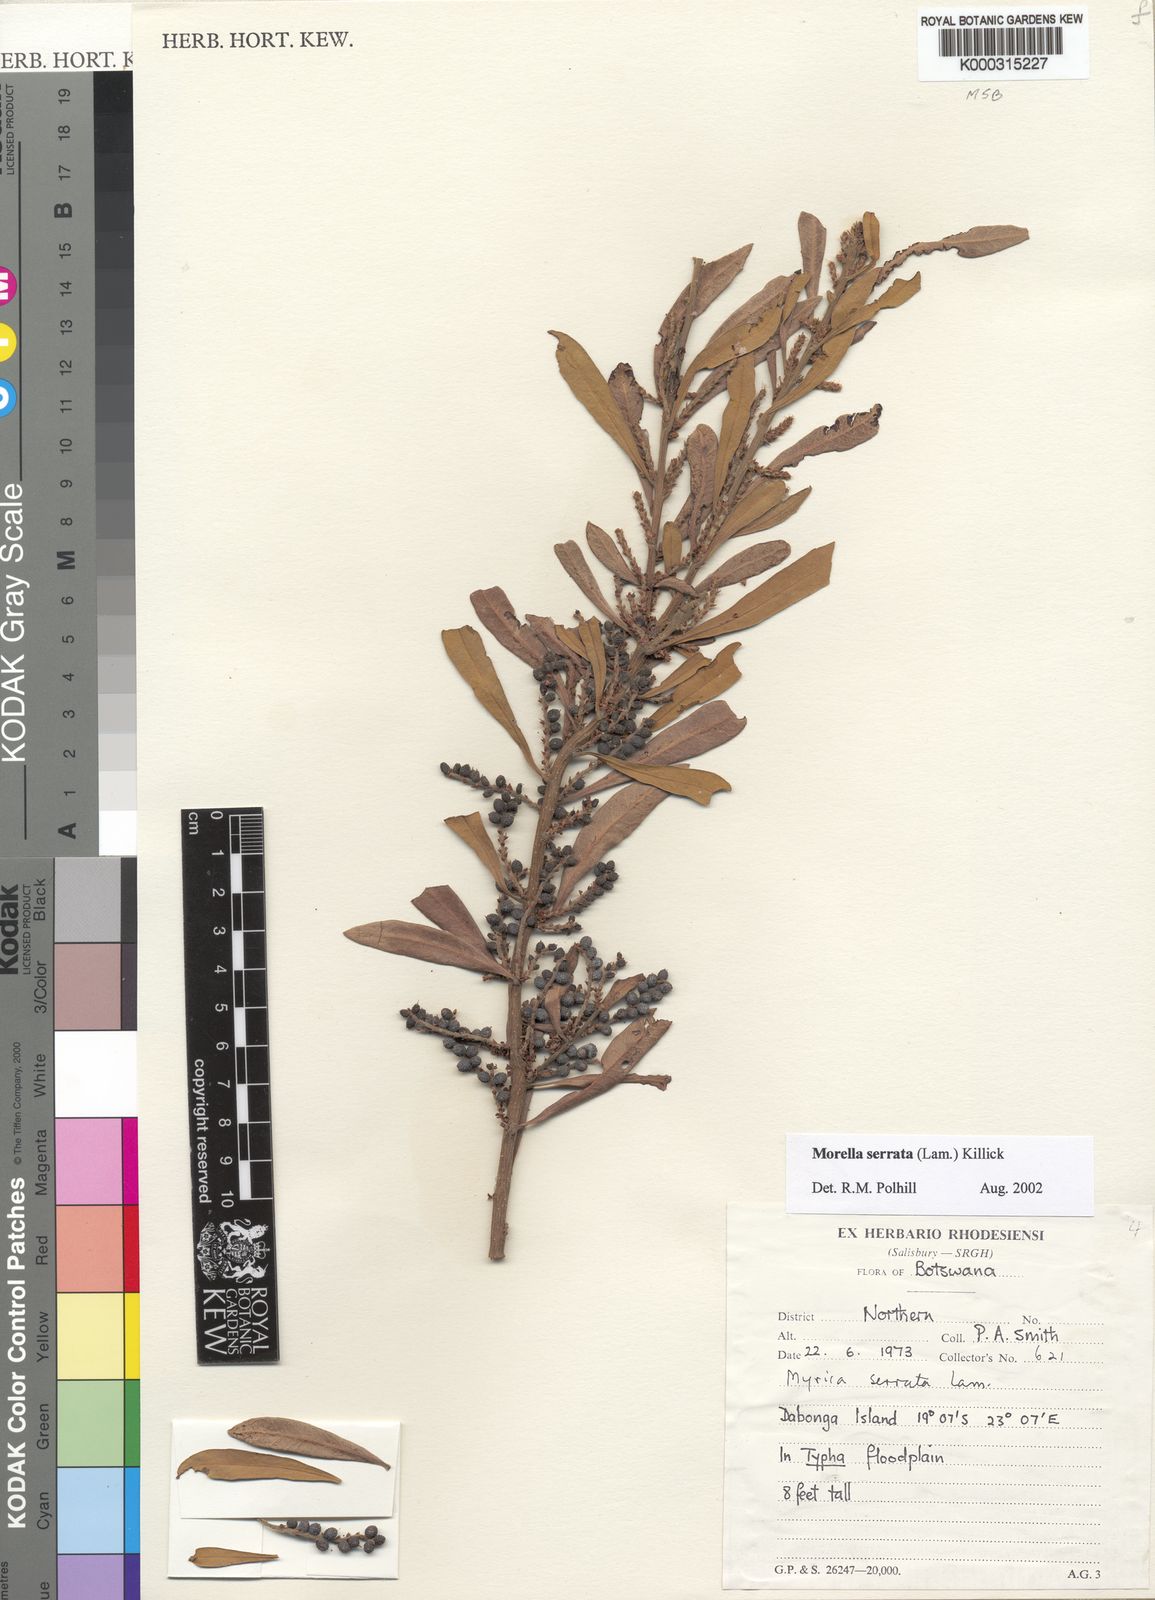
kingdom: Plantae
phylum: Tracheophyta
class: Magnoliopsida
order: Fagales
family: Myricaceae
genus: Morella
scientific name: Morella serrata
